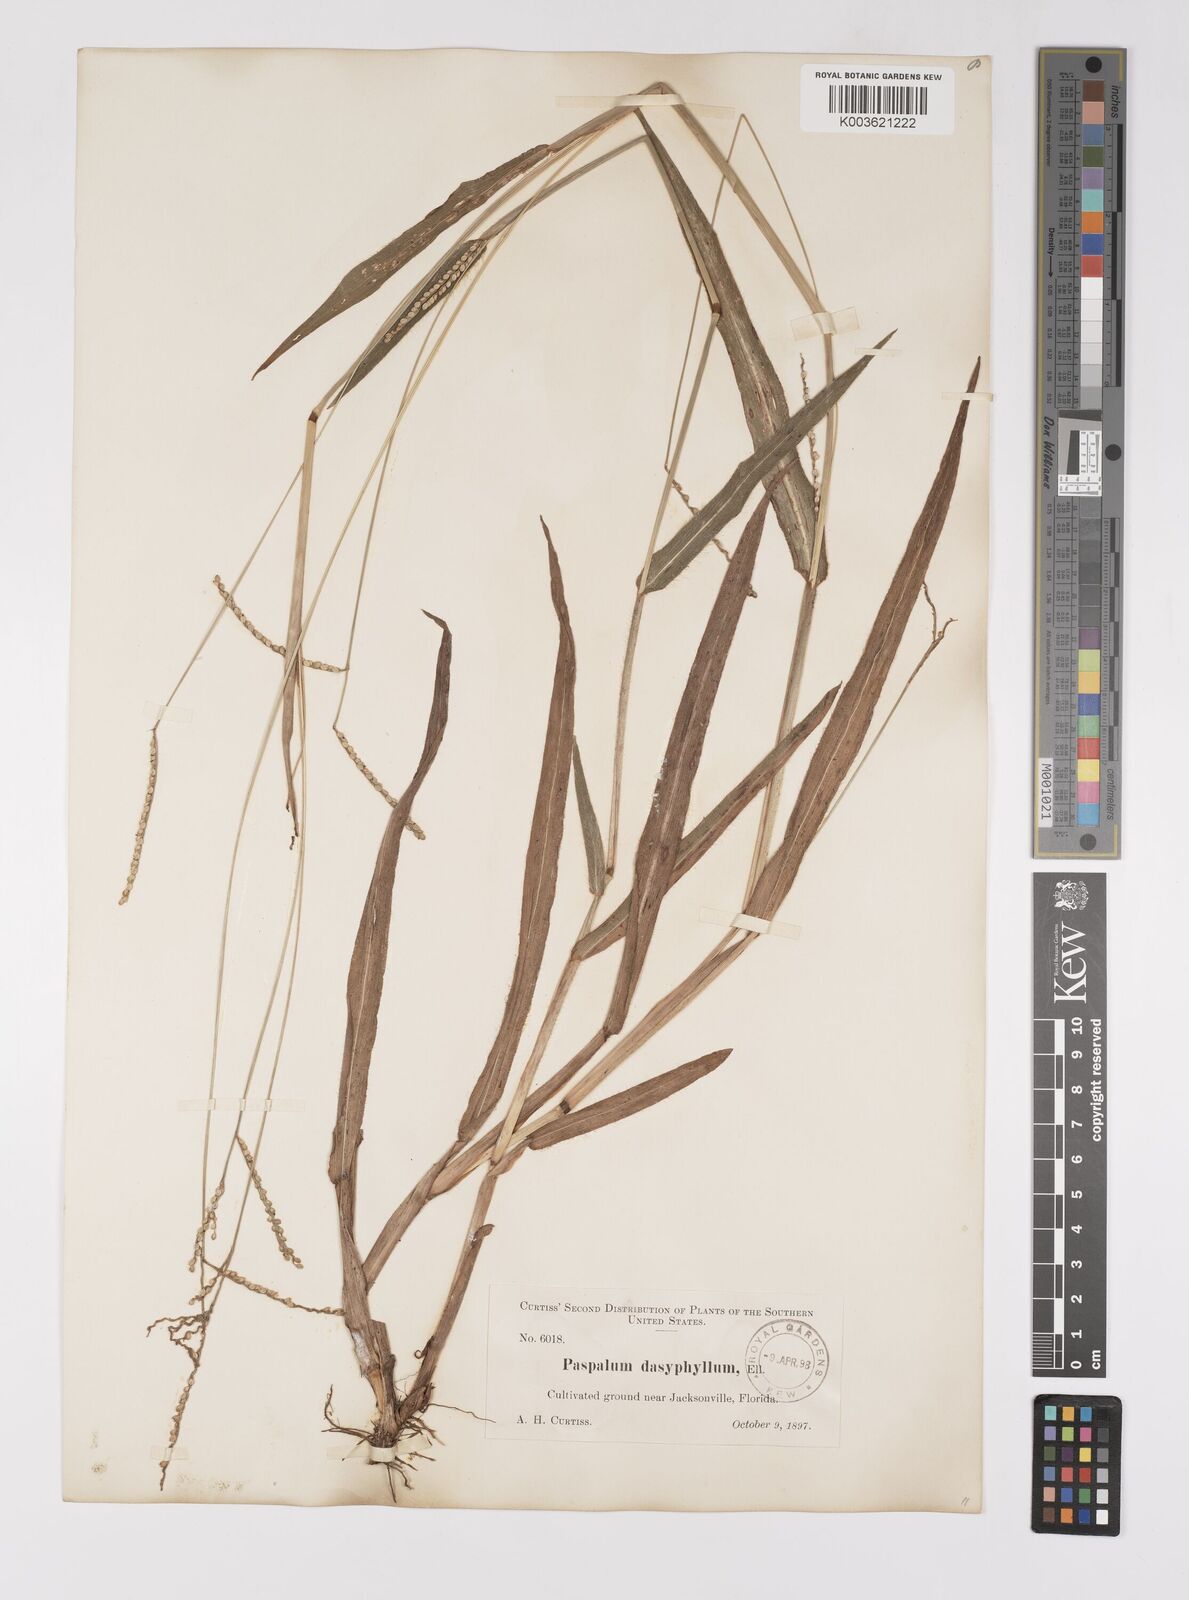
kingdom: Plantae
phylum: Tracheophyta
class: Liliopsida
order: Poales
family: Poaceae
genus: Paspalum
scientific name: Paspalum setaceum
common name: Slender paspalum
